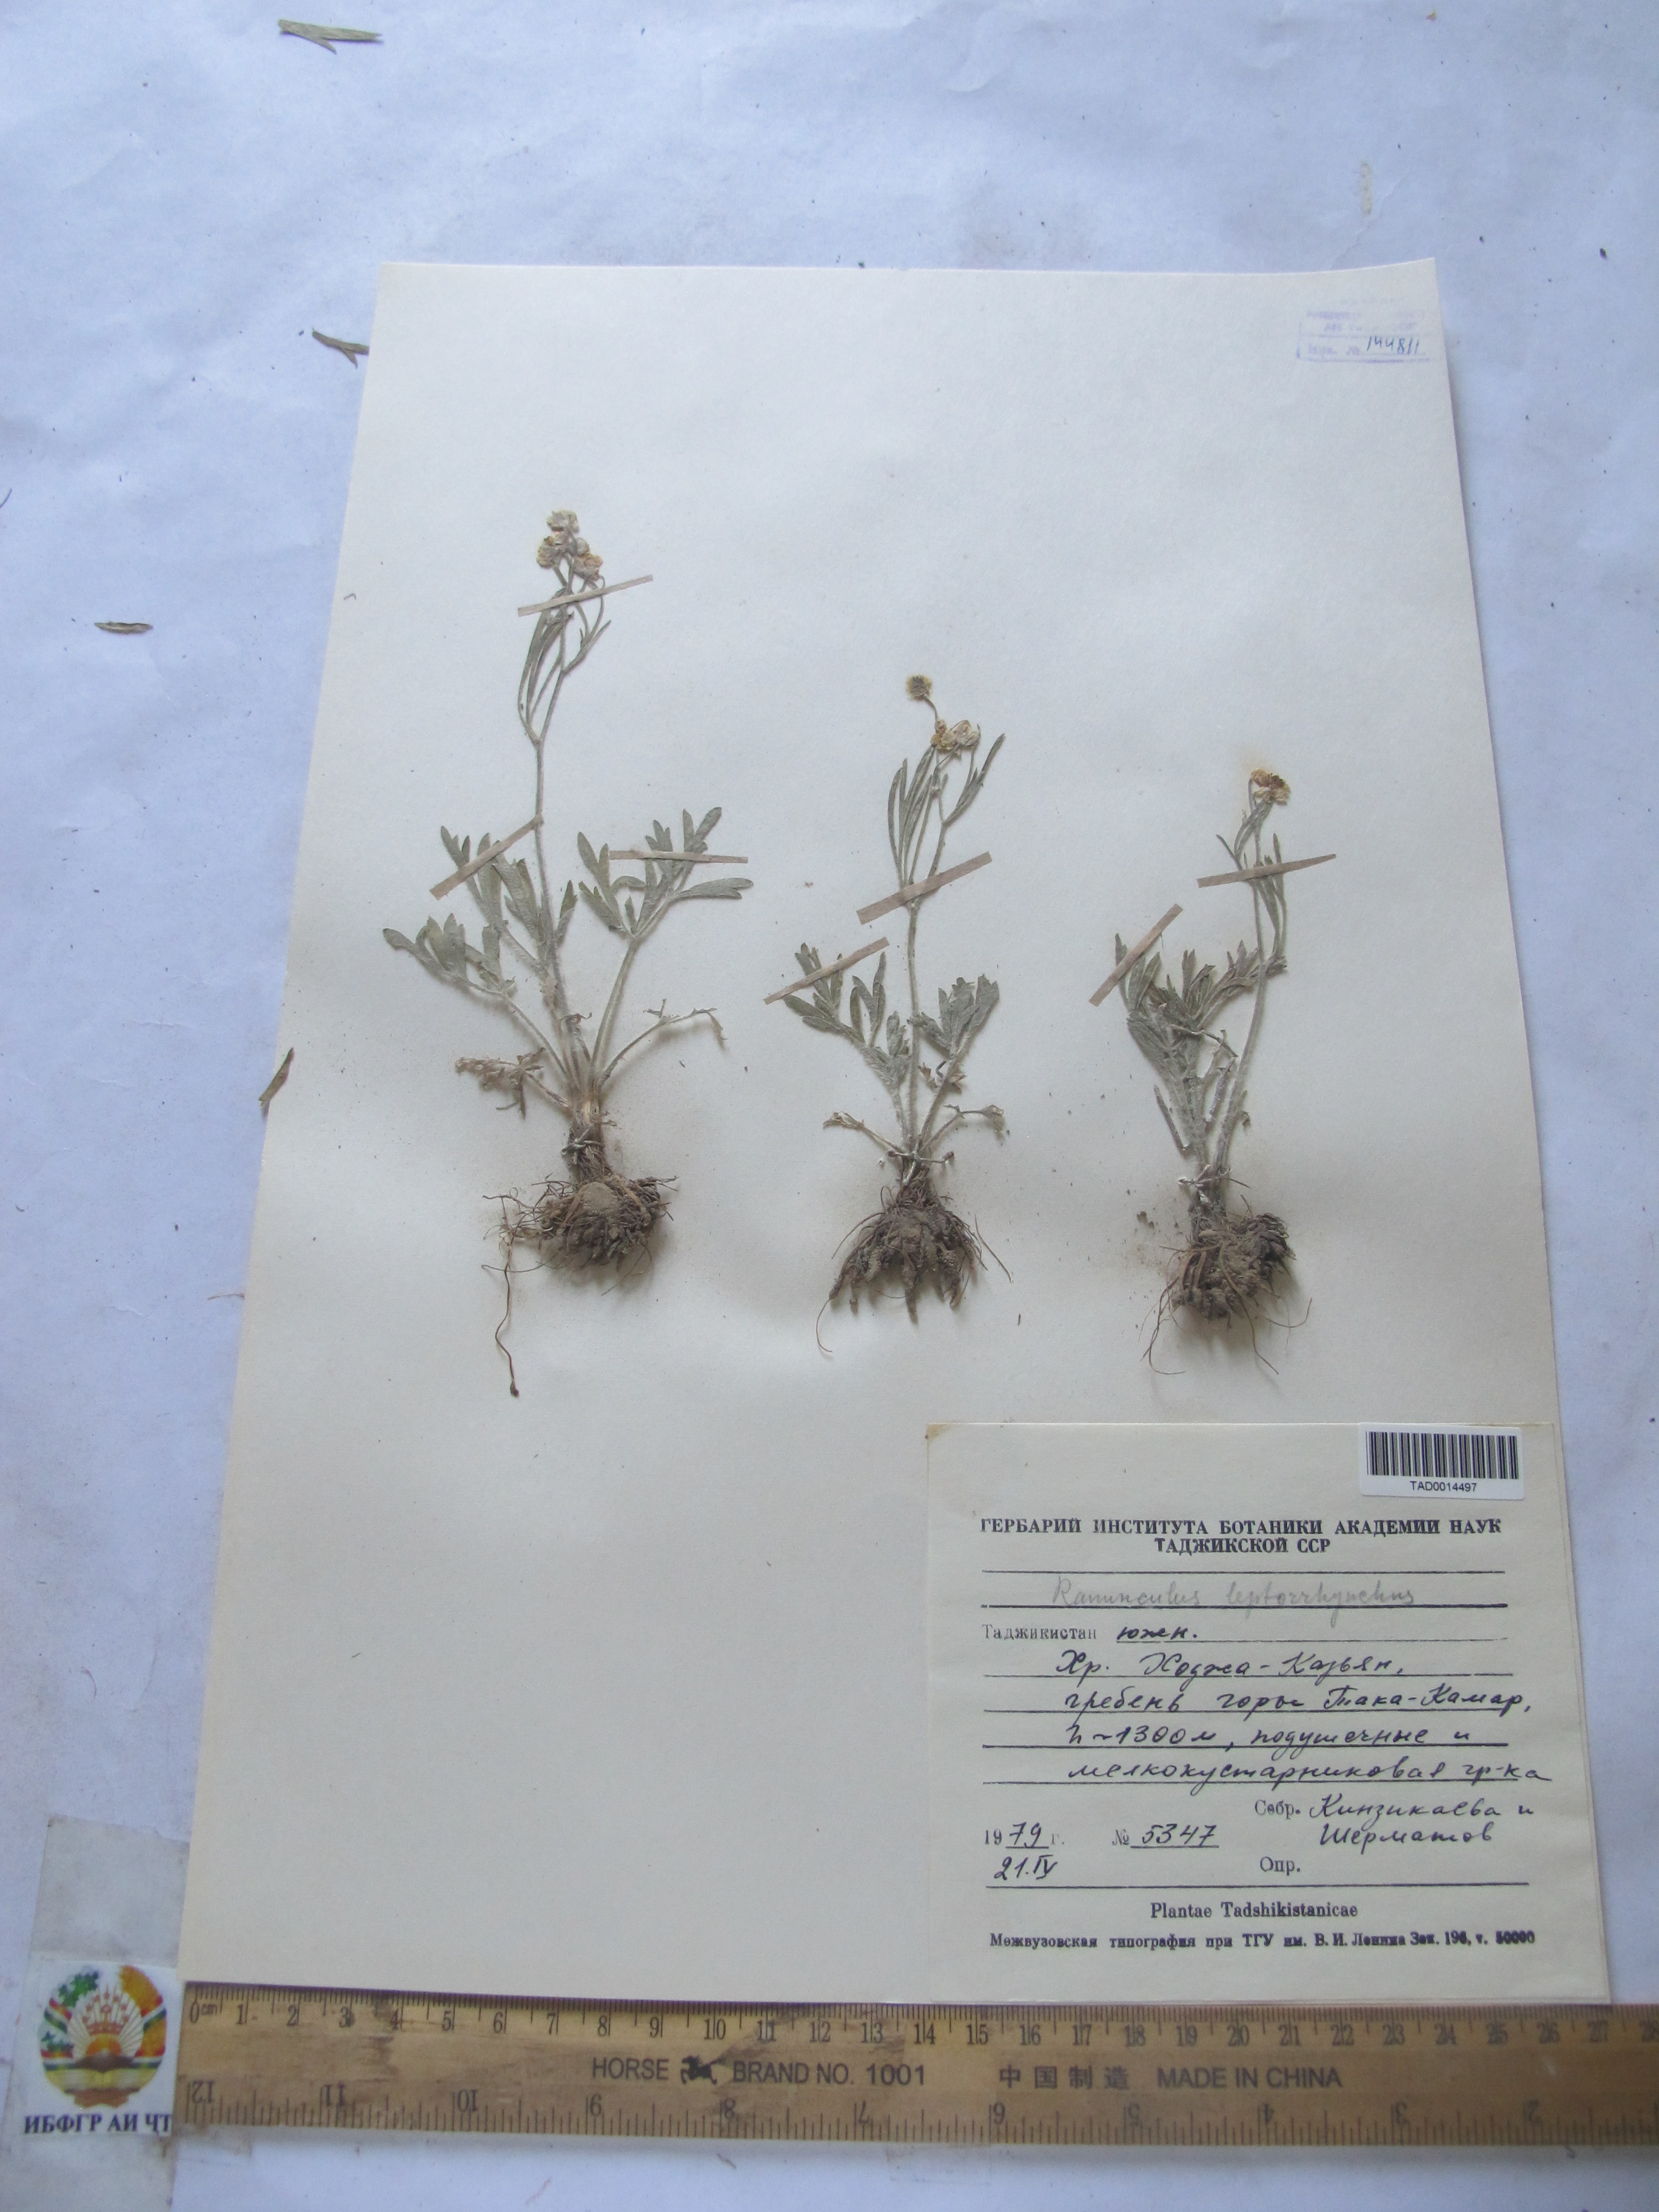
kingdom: Plantae
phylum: Tracheophyta
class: Magnoliopsida
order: Ranunculales
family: Ranunculaceae
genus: Ranunculus
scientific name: Ranunculus leptorrhynchus
